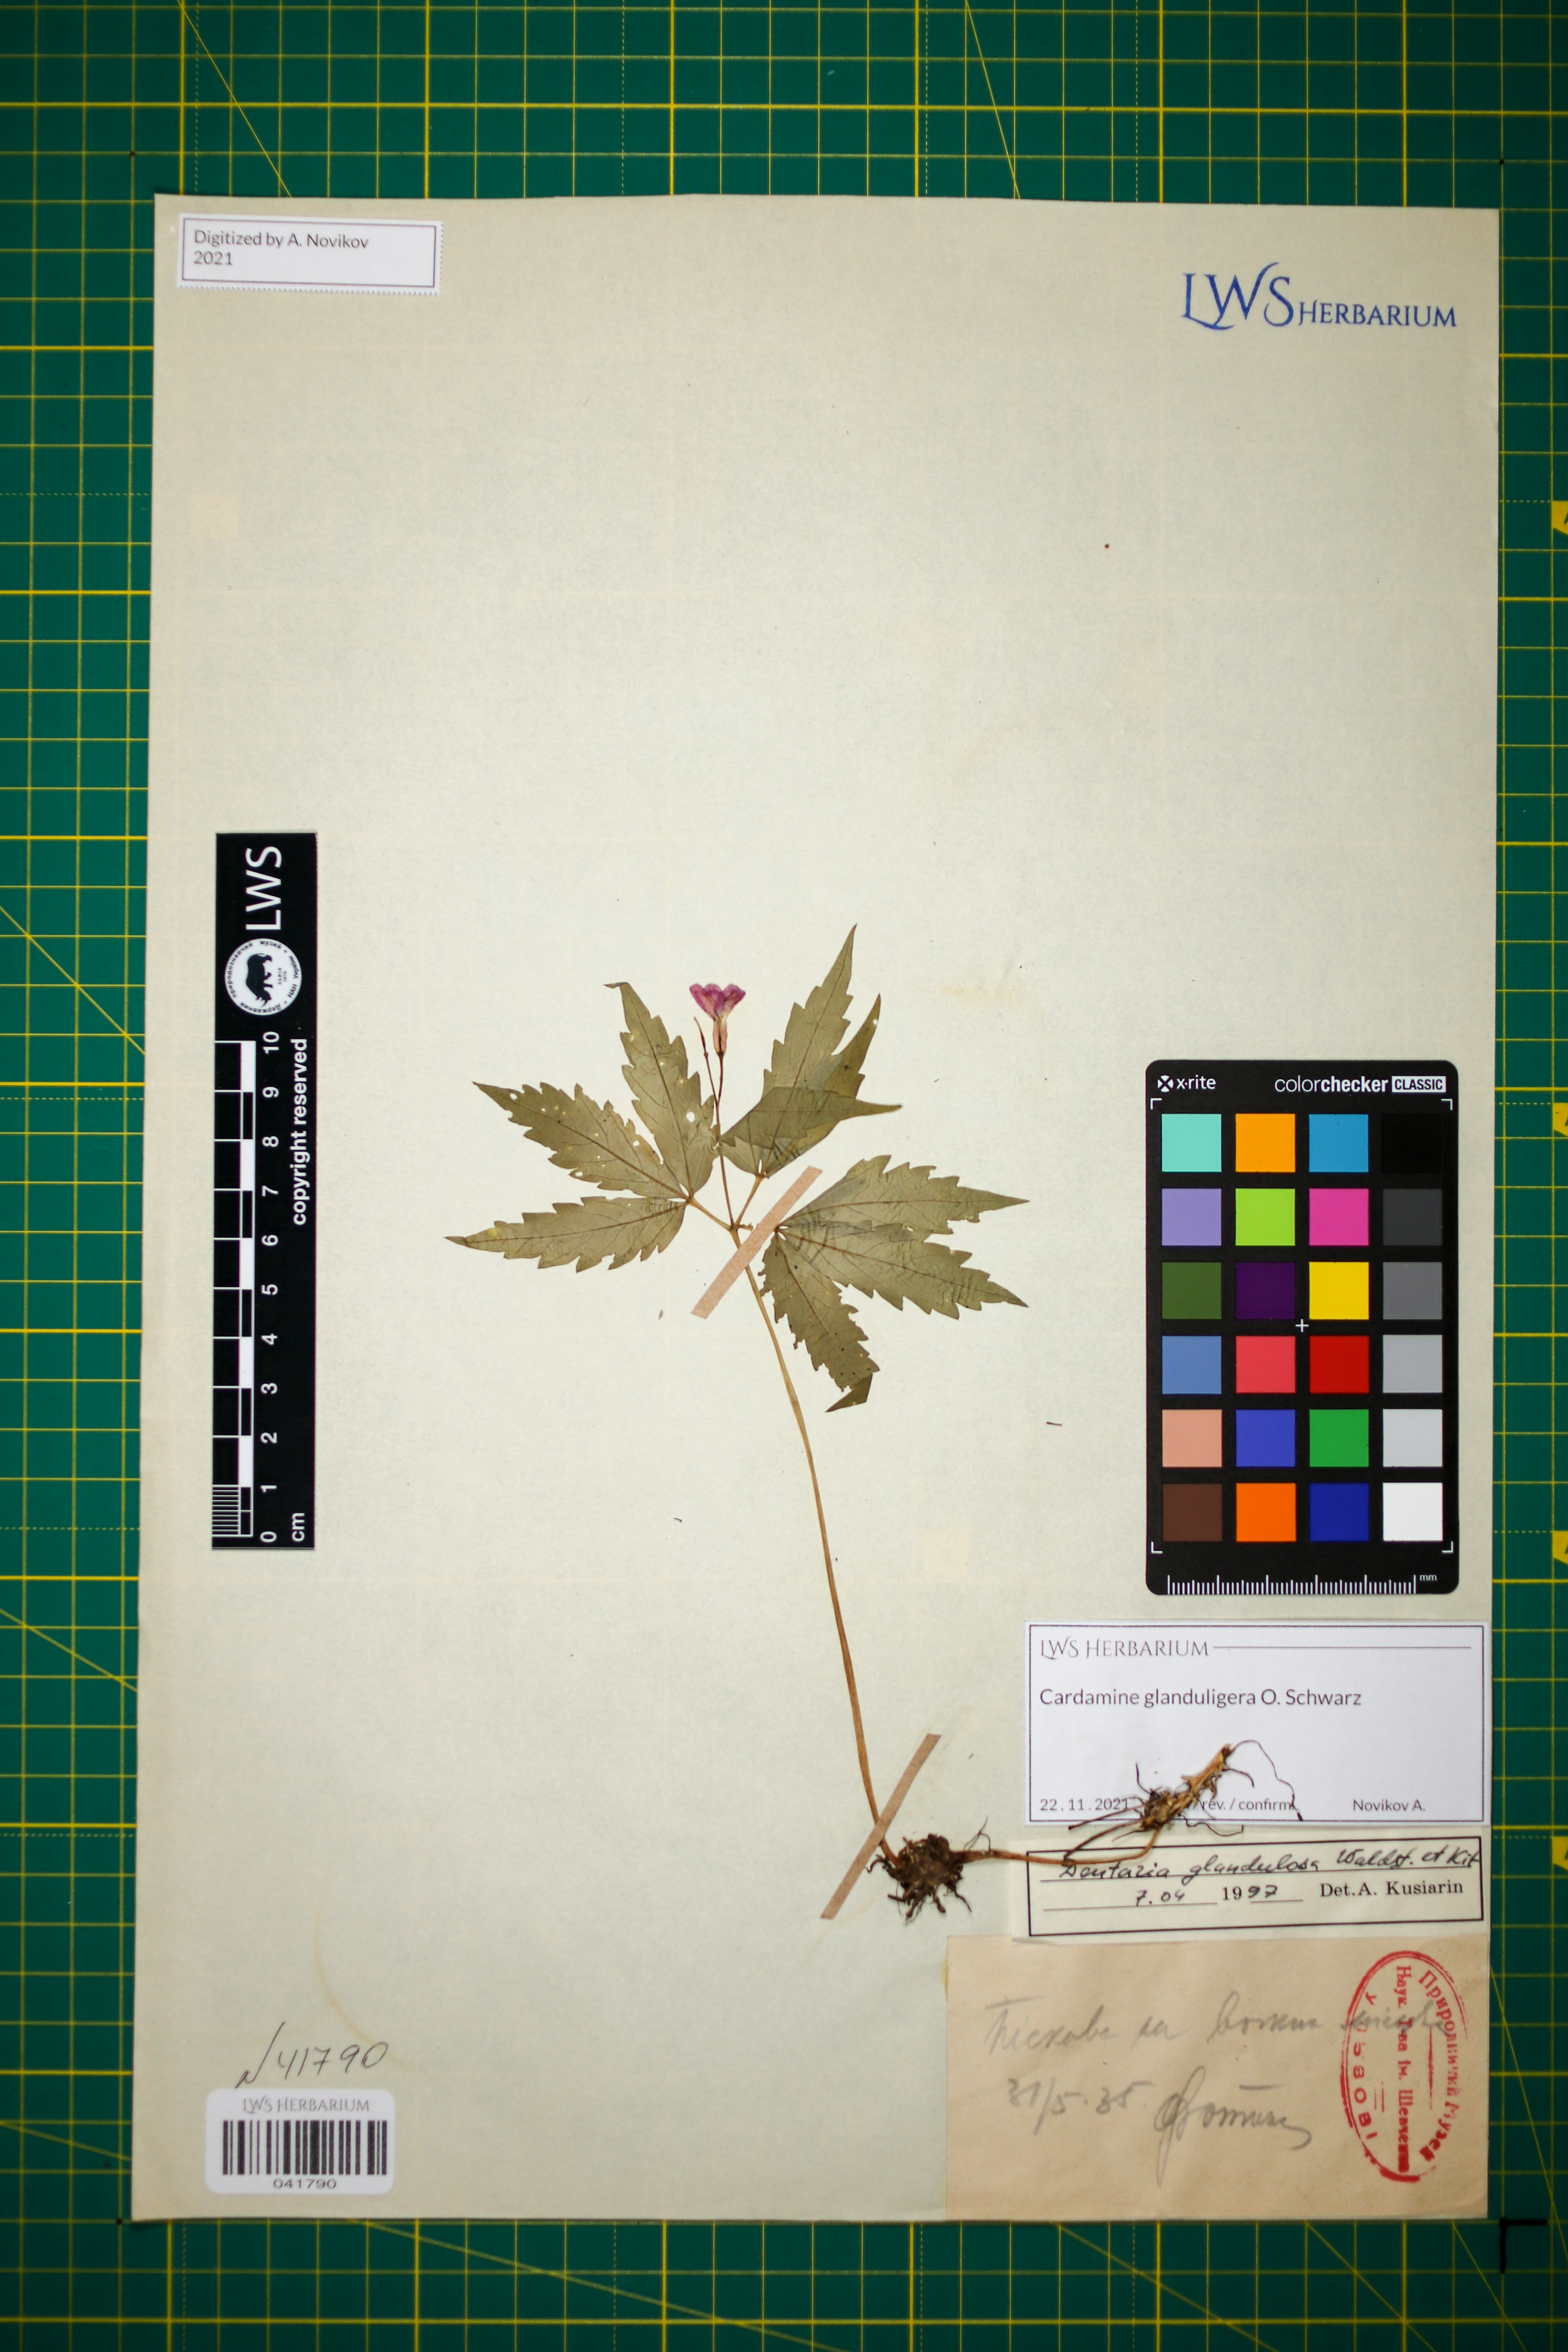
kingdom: Plantae
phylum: Tracheophyta
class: Magnoliopsida
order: Brassicales
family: Brassicaceae
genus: Cardamine
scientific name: Cardamine glanduligera
